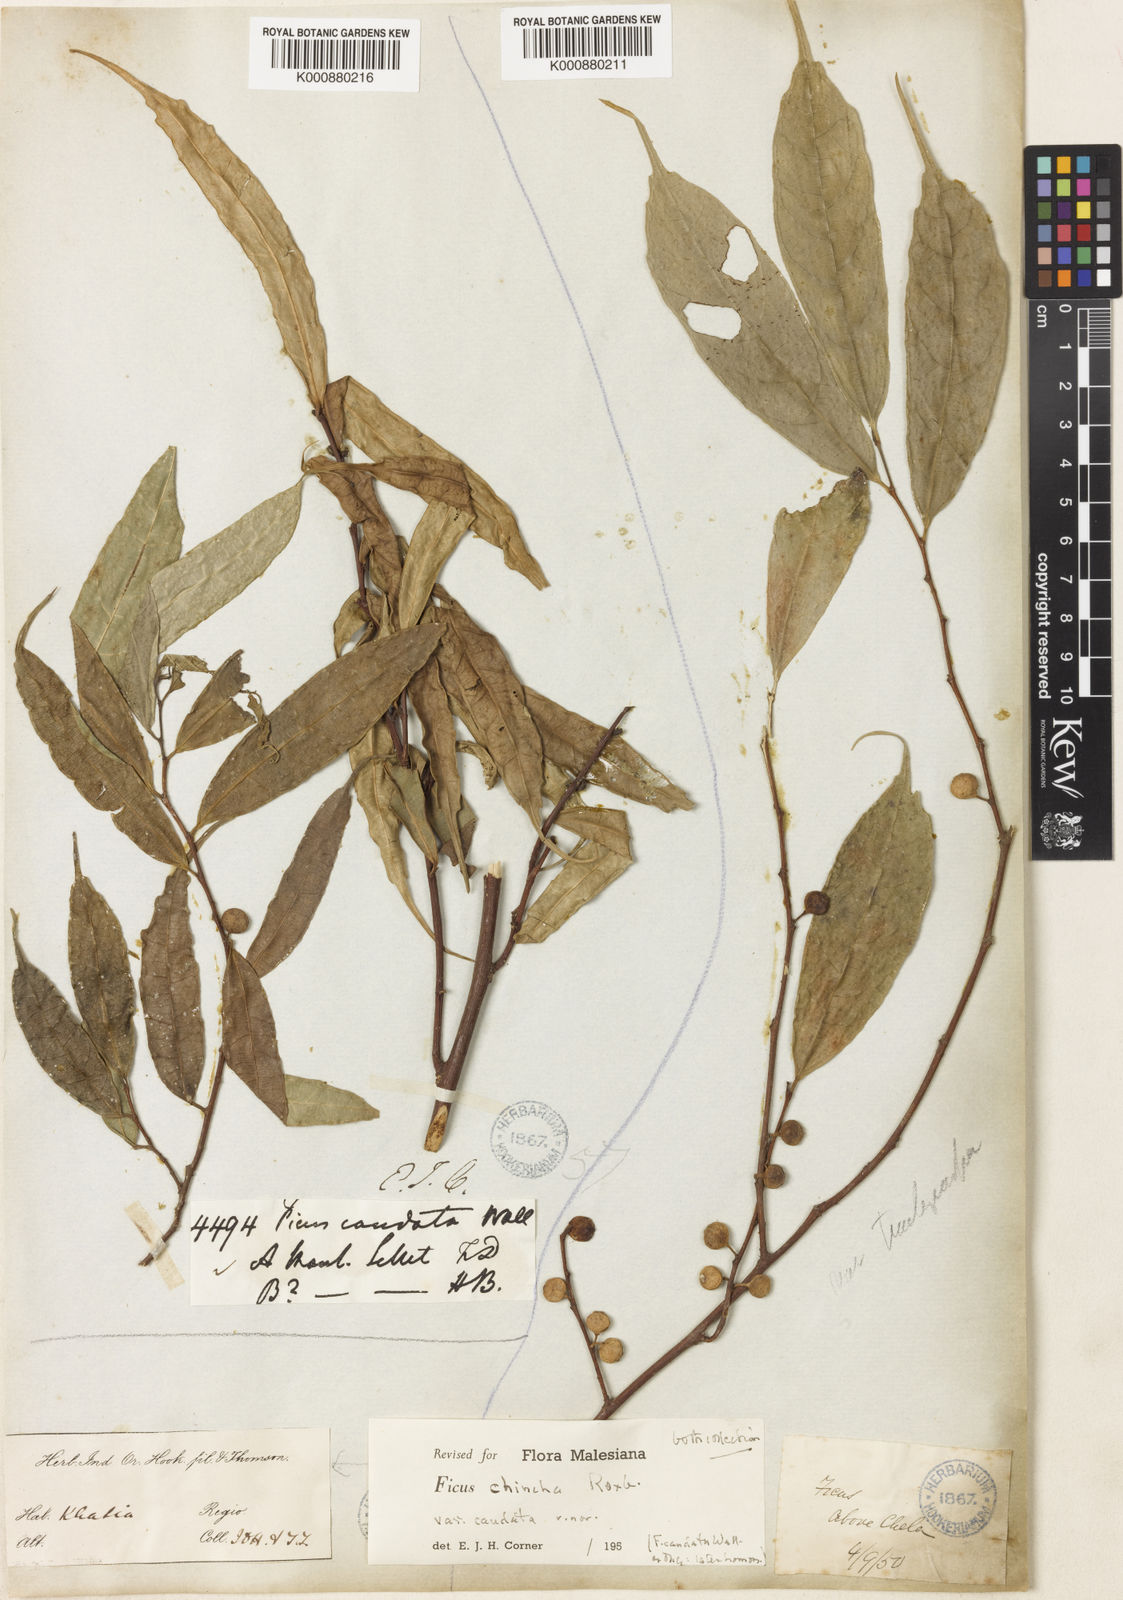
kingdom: Plantae
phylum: Tracheophyta
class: Magnoliopsida
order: Rosales
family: Moraceae
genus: Ficus
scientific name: Ficus subincisa
